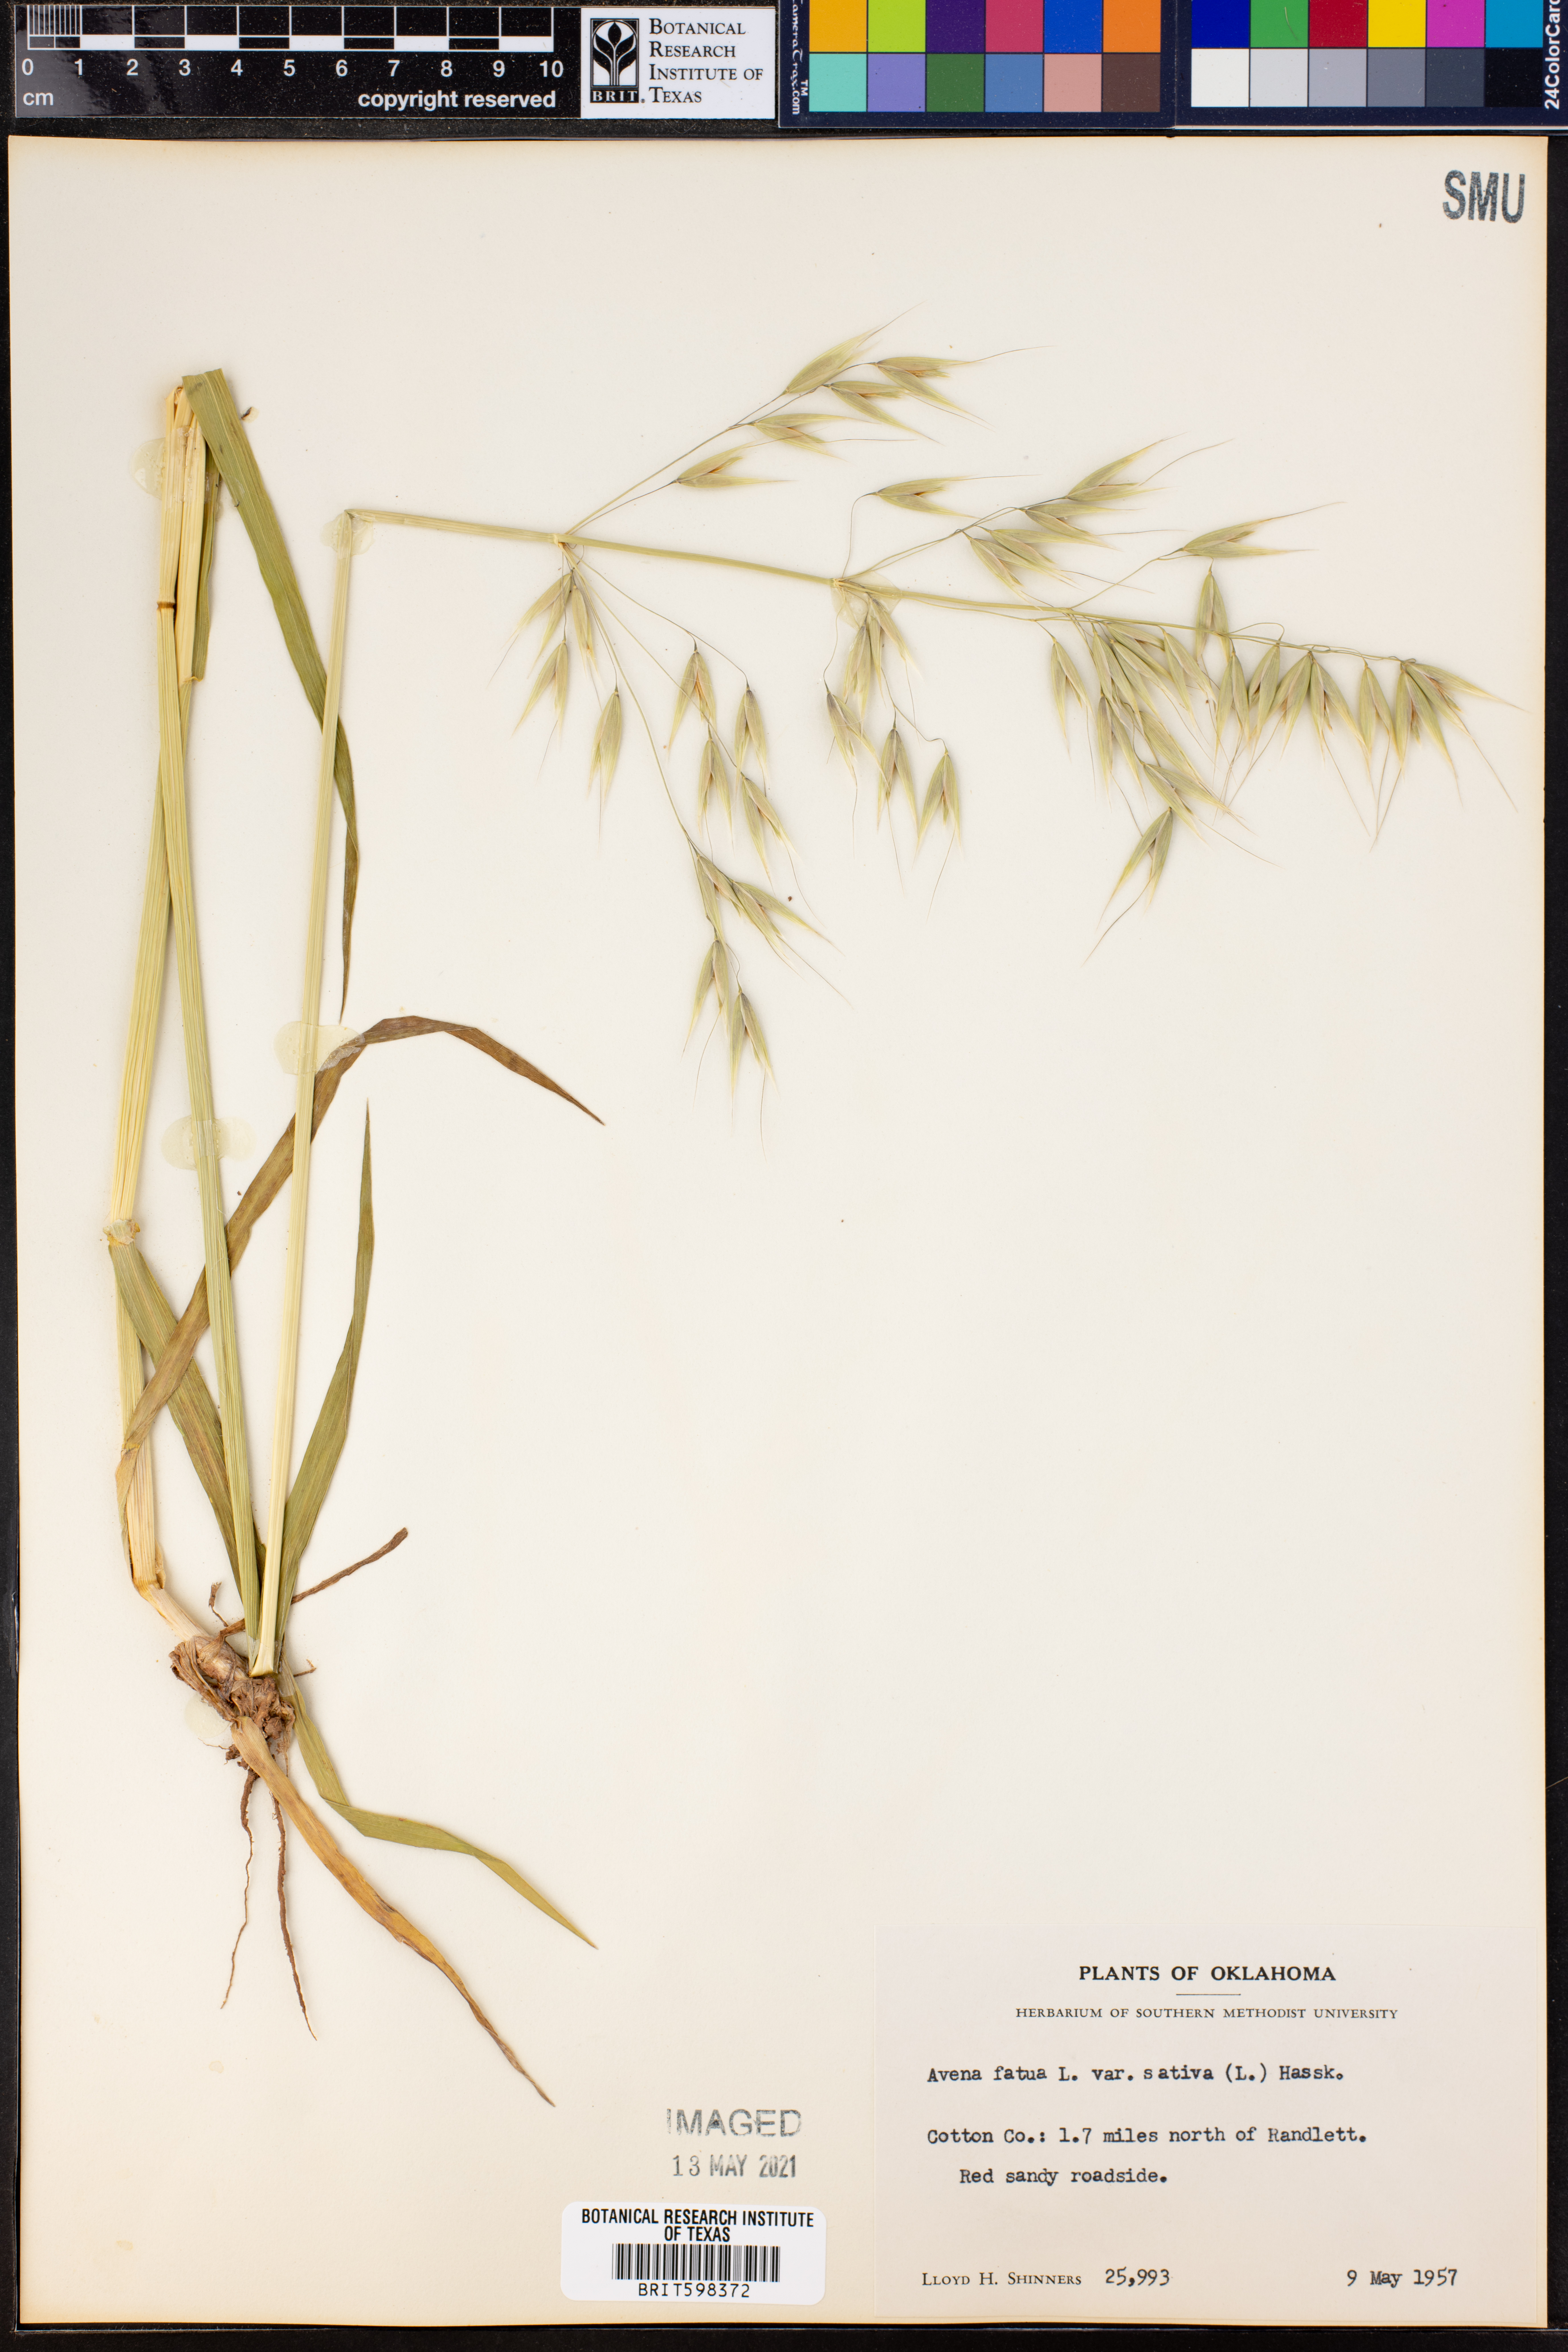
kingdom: Plantae
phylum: Tracheophyta
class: Liliopsida
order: Poales
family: Poaceae
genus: Avena
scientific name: Avena sativa
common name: Oat
